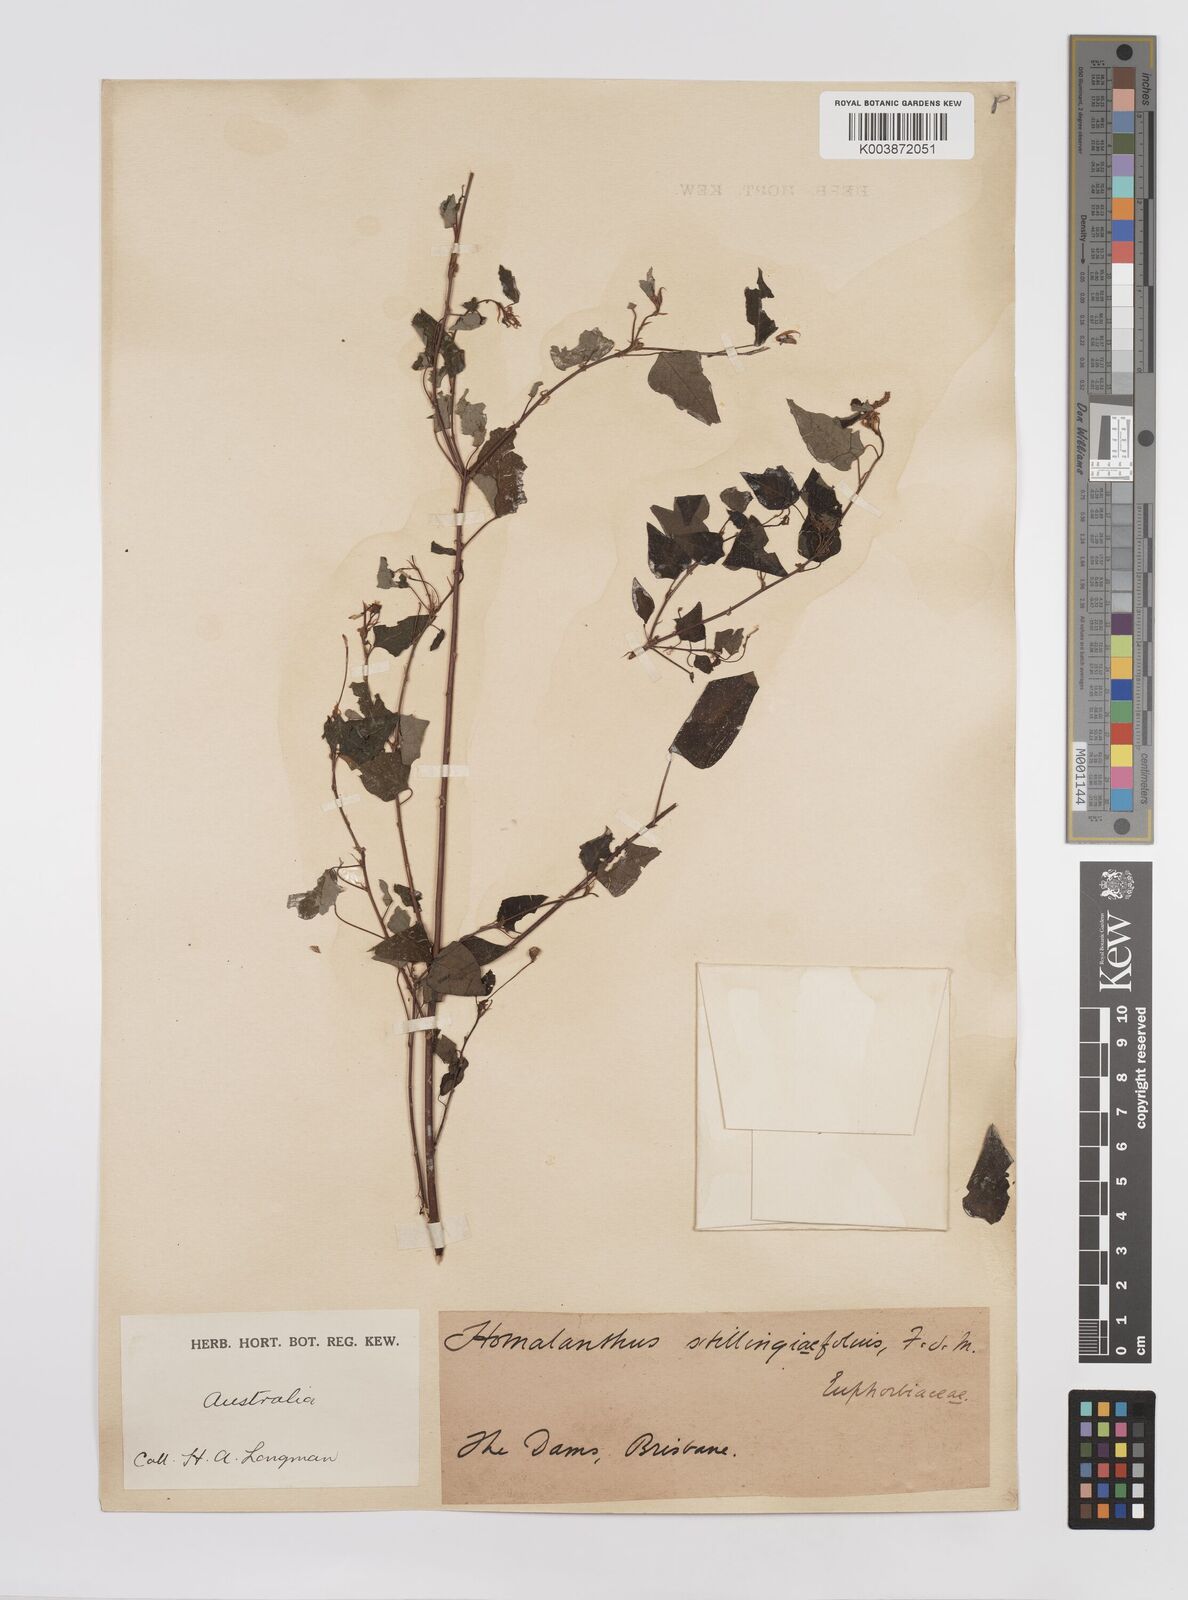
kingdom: Plantae
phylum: Tracheophyta
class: Magnoliopsida
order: Malpighiales
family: Euphorbiaceae
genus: Homalanthus
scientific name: Homalanthus stillingifolius
